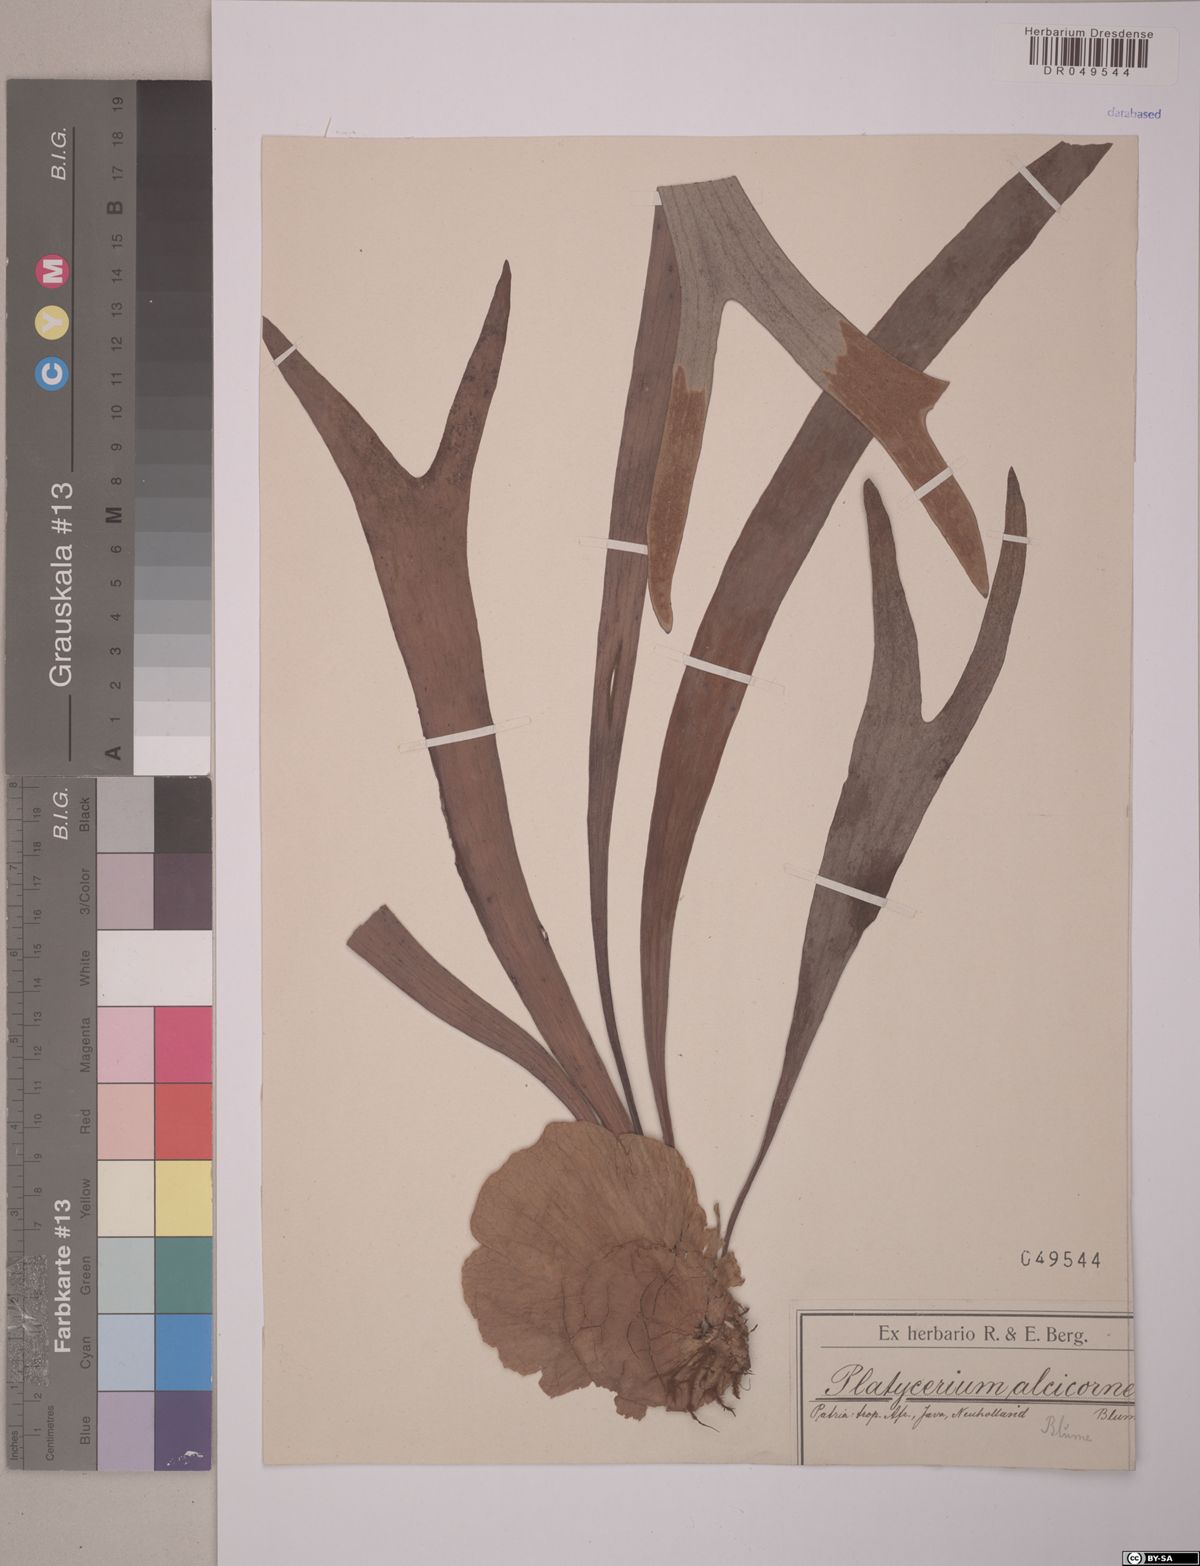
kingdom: Plantae
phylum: Tracheophyta
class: Polypodiopsida
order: Polypodiales
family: Polypodiaceae
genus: Platycerium
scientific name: Platycerium alcicorne
